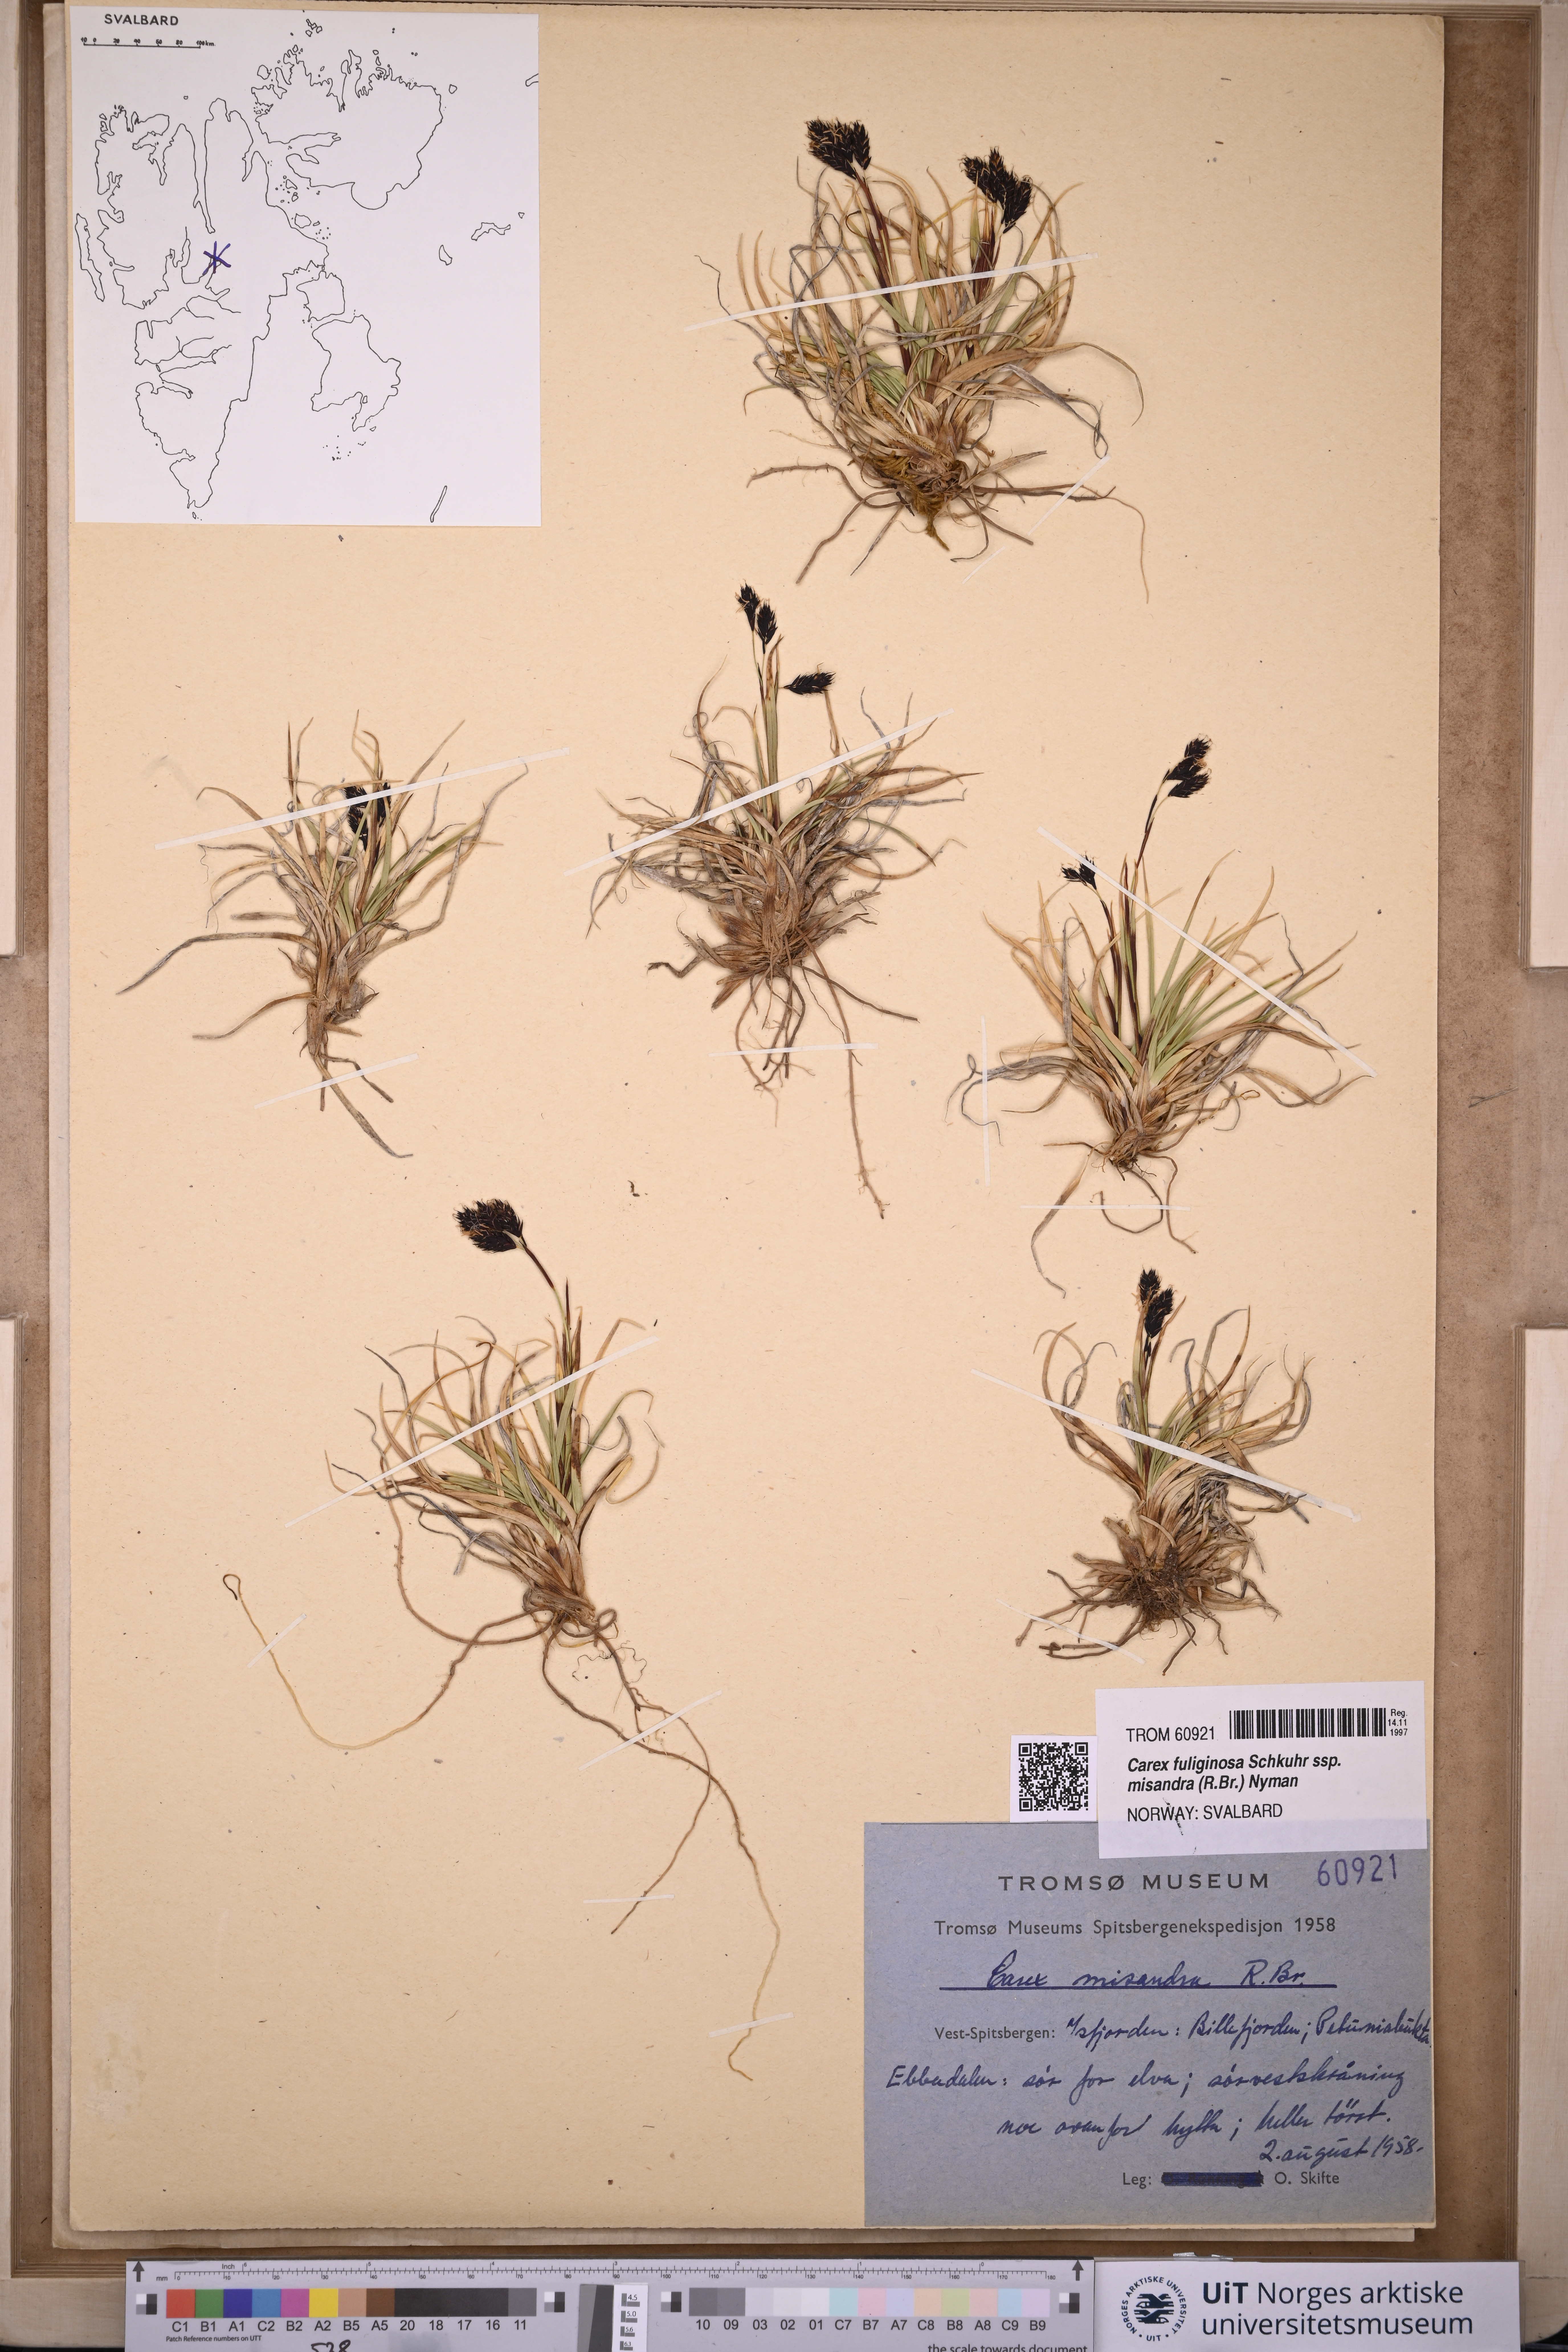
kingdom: Plantae
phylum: Tracheophyta
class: Liliopsida
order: Poales
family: Cyperaceae
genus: Carex
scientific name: Carex fuliginosa
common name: Few-flowered sedge
